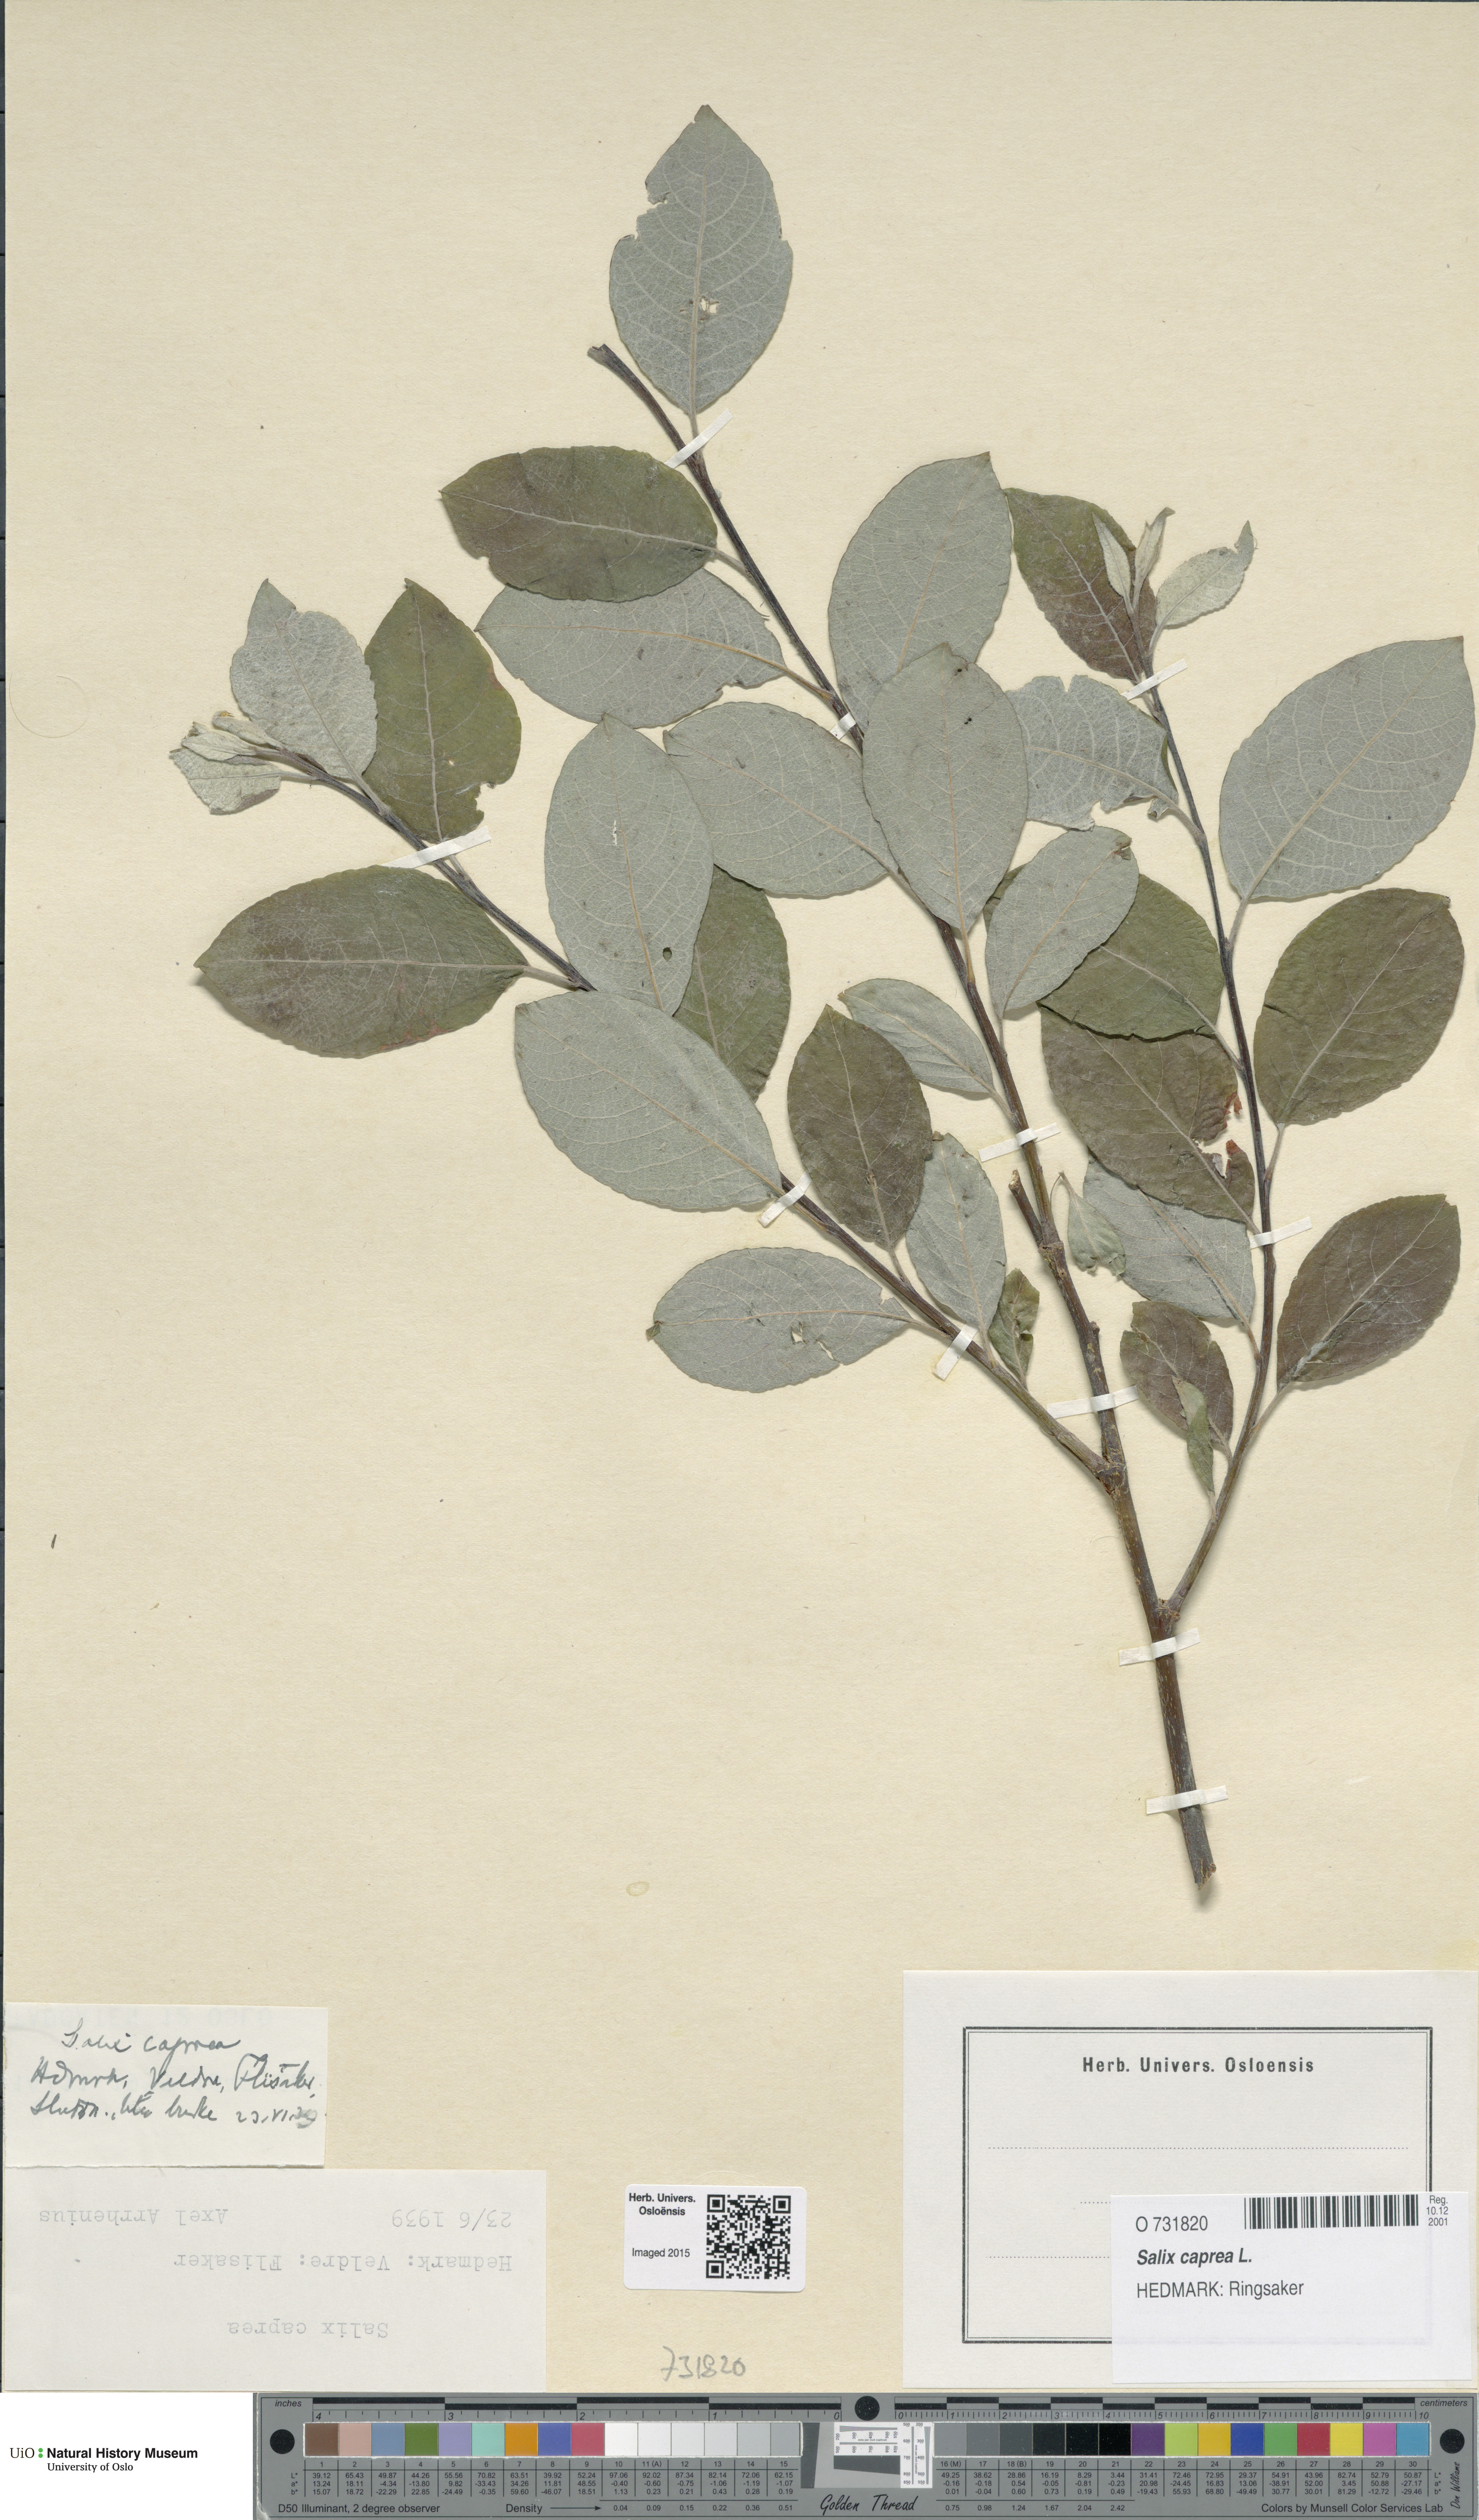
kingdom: Plantae
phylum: Tracheophyta
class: Magnoliopsida
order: Malpighiales
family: Salicaceae
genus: Salix
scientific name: Salix caprea
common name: Goat willow
